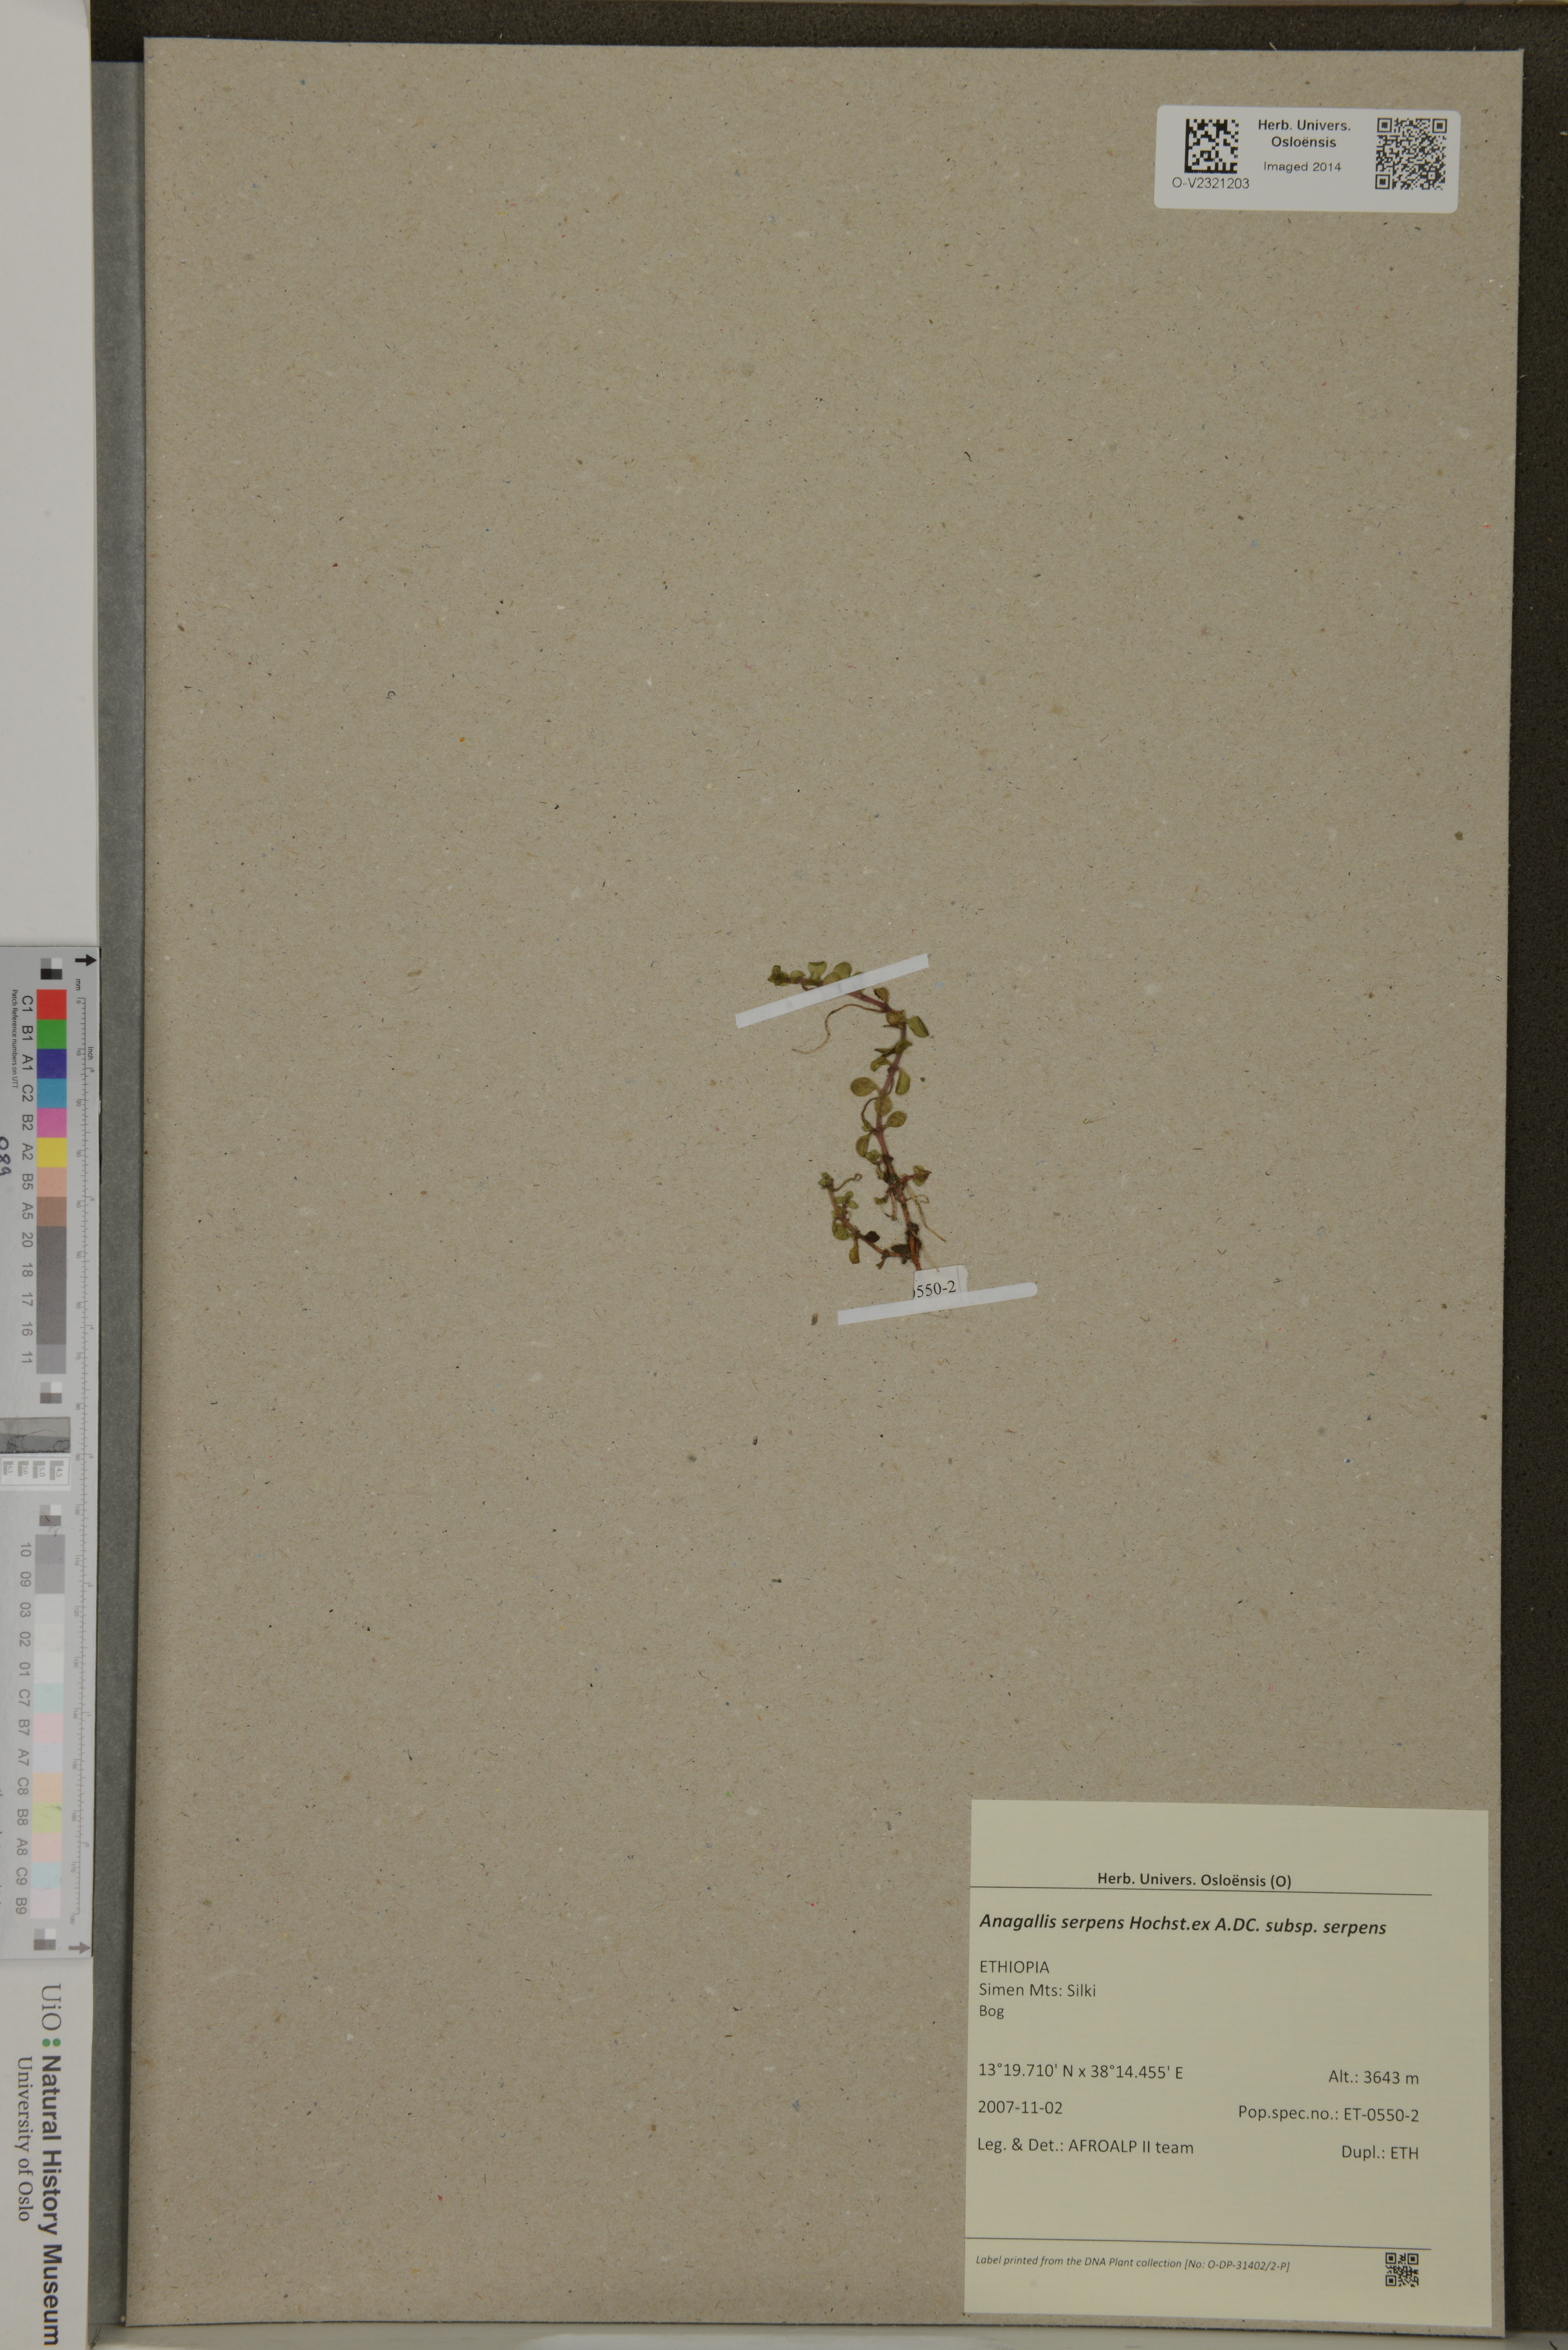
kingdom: Plantae
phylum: Tracheophyta
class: Magnoliopsida
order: Ericales
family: Primulaceae
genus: Lysimachia
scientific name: Lysimachia serpens
